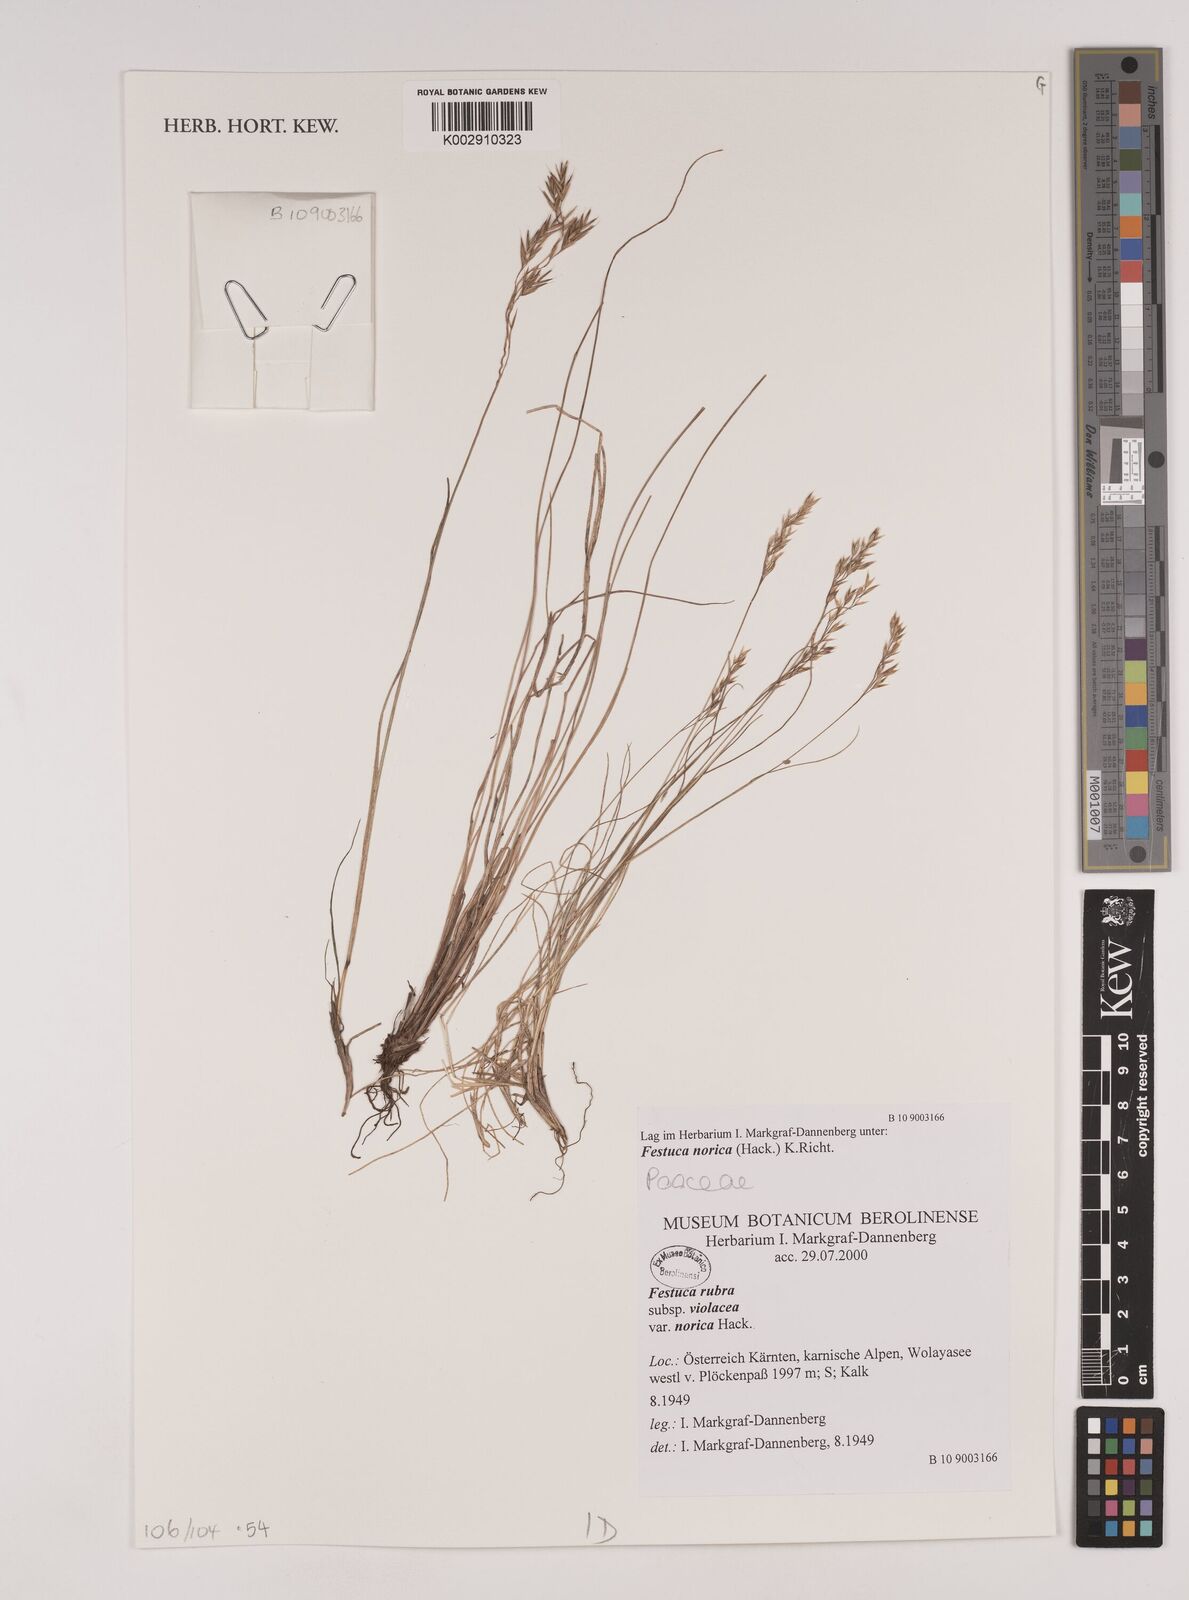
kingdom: Plantae
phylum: Tracheophyta
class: Liliopsida
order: Poales
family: Poaceae
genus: Festuca
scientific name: Festuca norica
